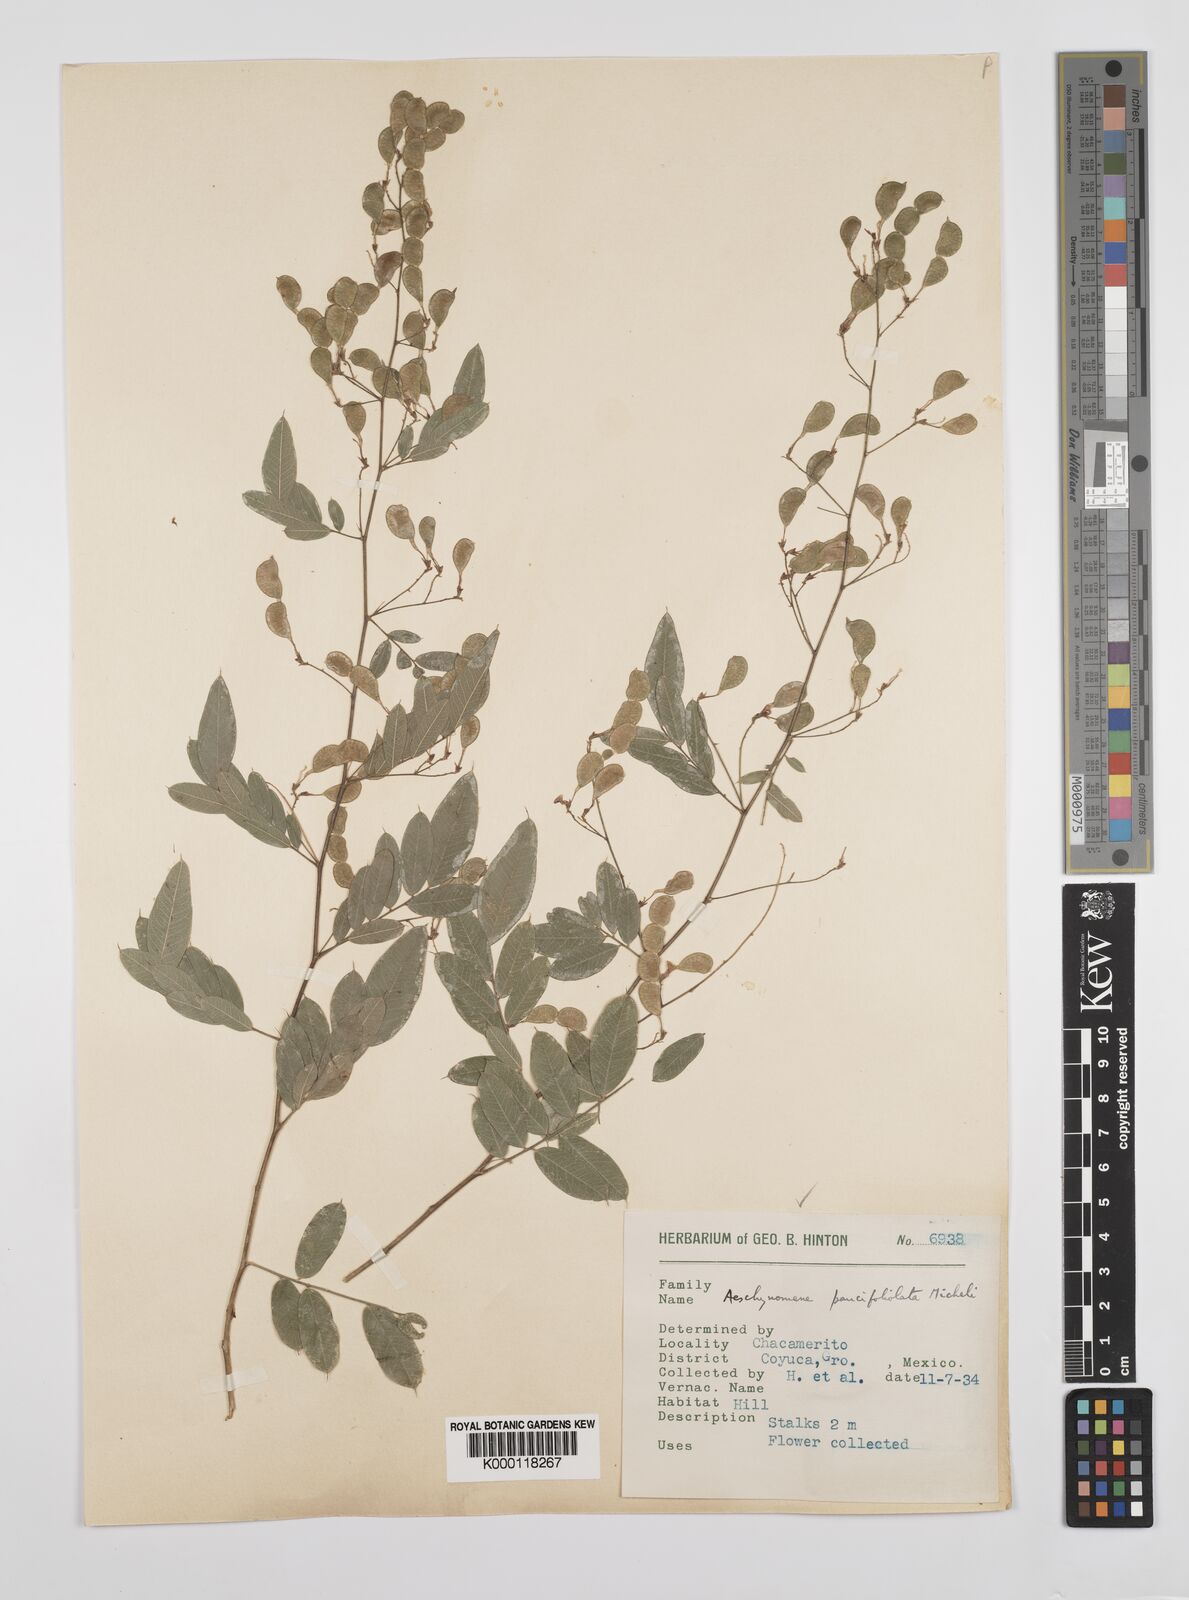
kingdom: Plantae
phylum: Tracheophyta
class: Magnoliopsida
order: Fabales
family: Fabaceae
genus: Ctenodon
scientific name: Ctenodon paucifoliolatus
